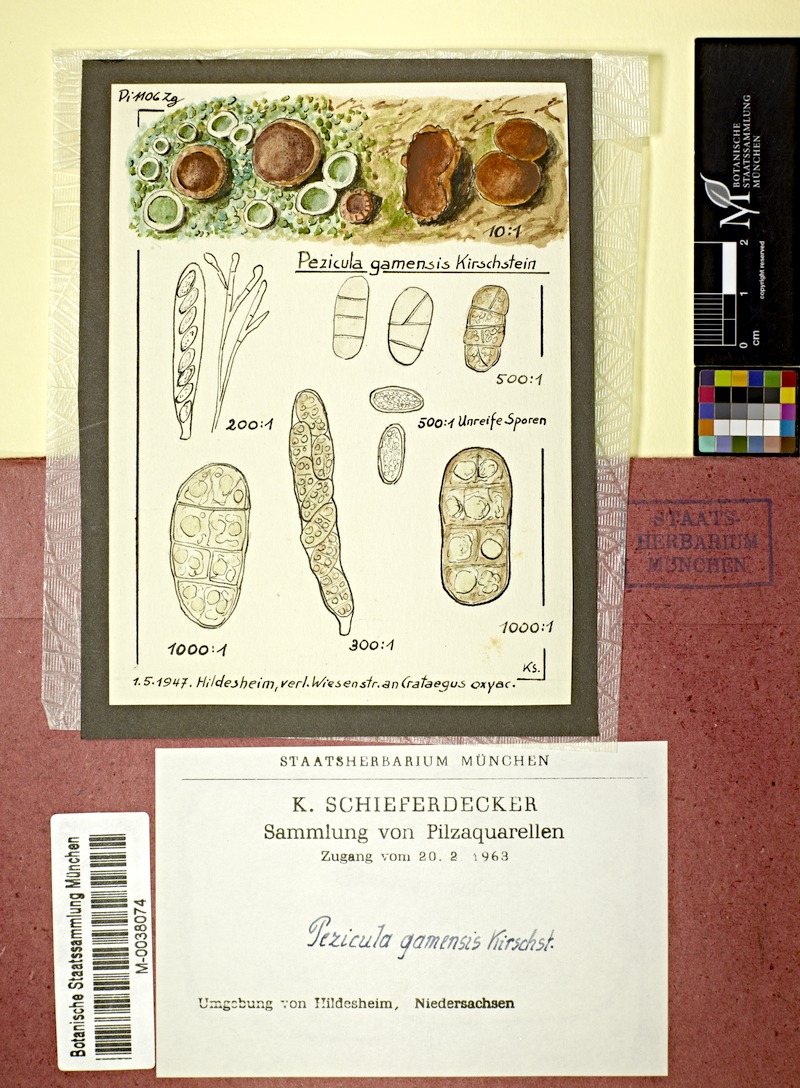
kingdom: Fungi
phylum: Ascomycota
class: Leotiomycetes
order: Helotiales
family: Dermateaceae
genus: Pezicula
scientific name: Pezicula sepium
